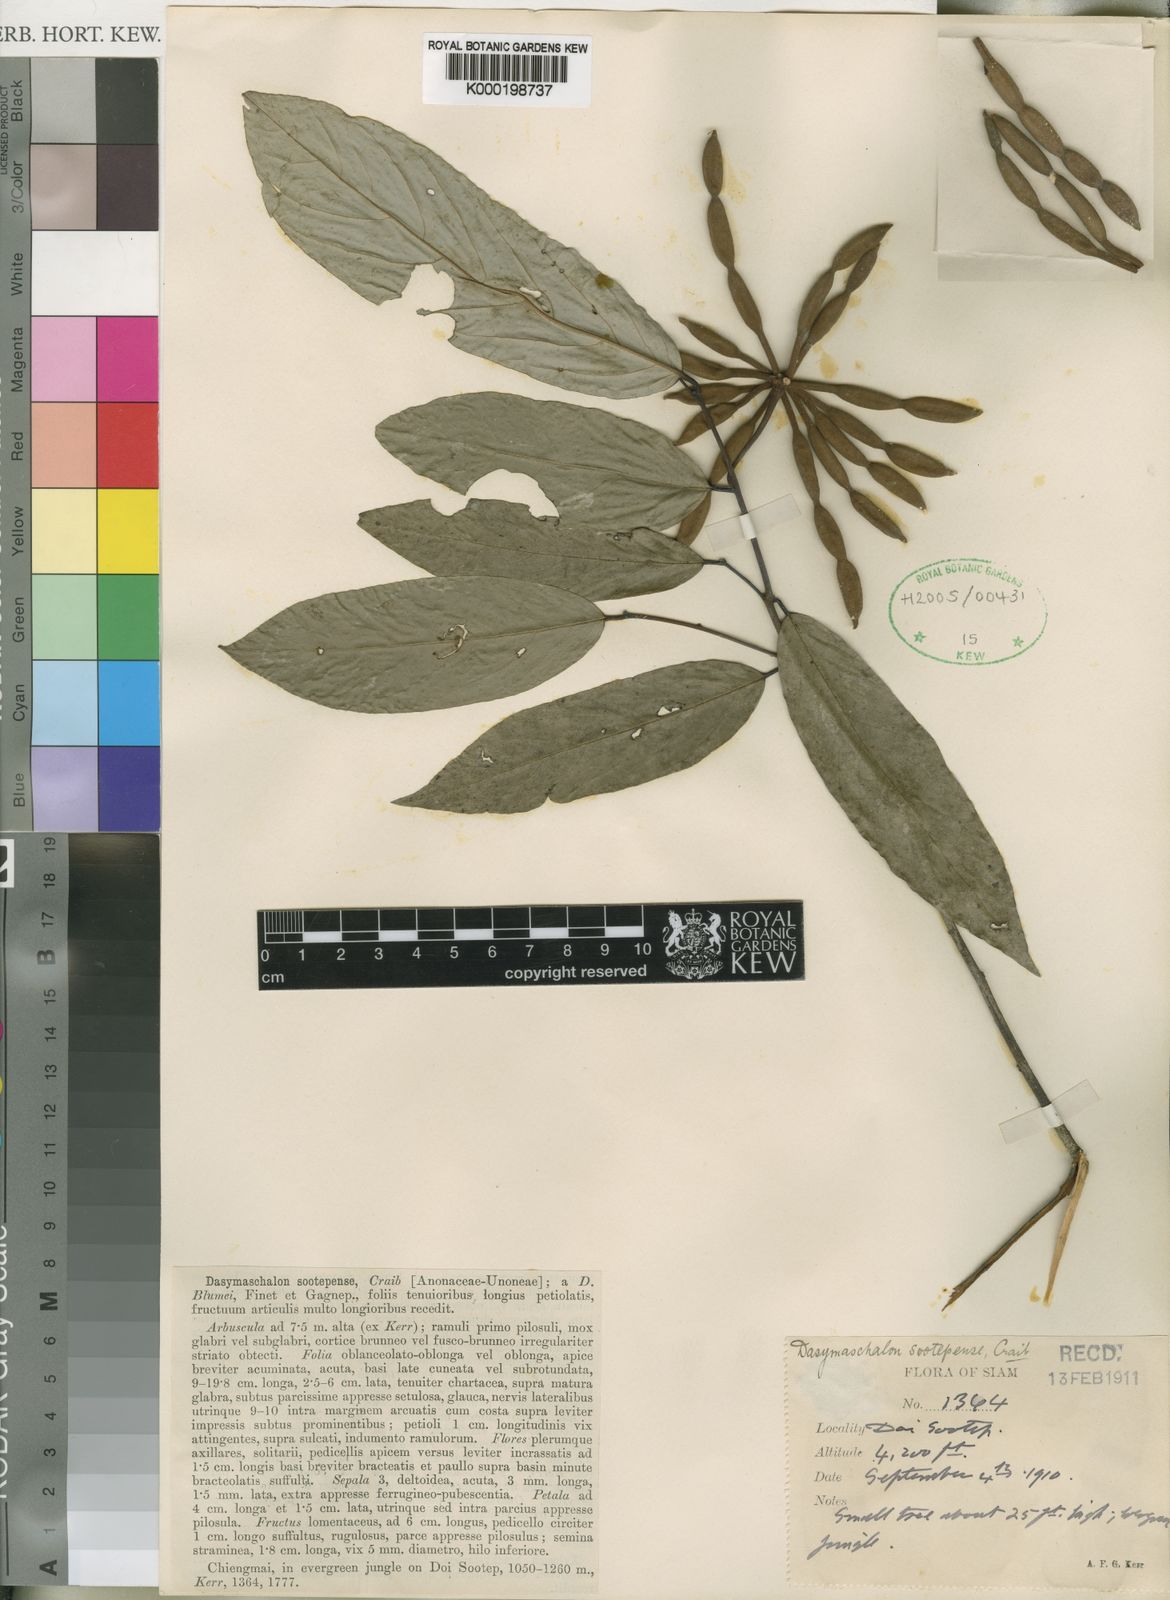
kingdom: Plantae
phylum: Tracheophyta
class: Magnoliopsida
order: Magnoliales
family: Annonaceae
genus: Dasymaschalon
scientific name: Dasymaschalon sootepense
